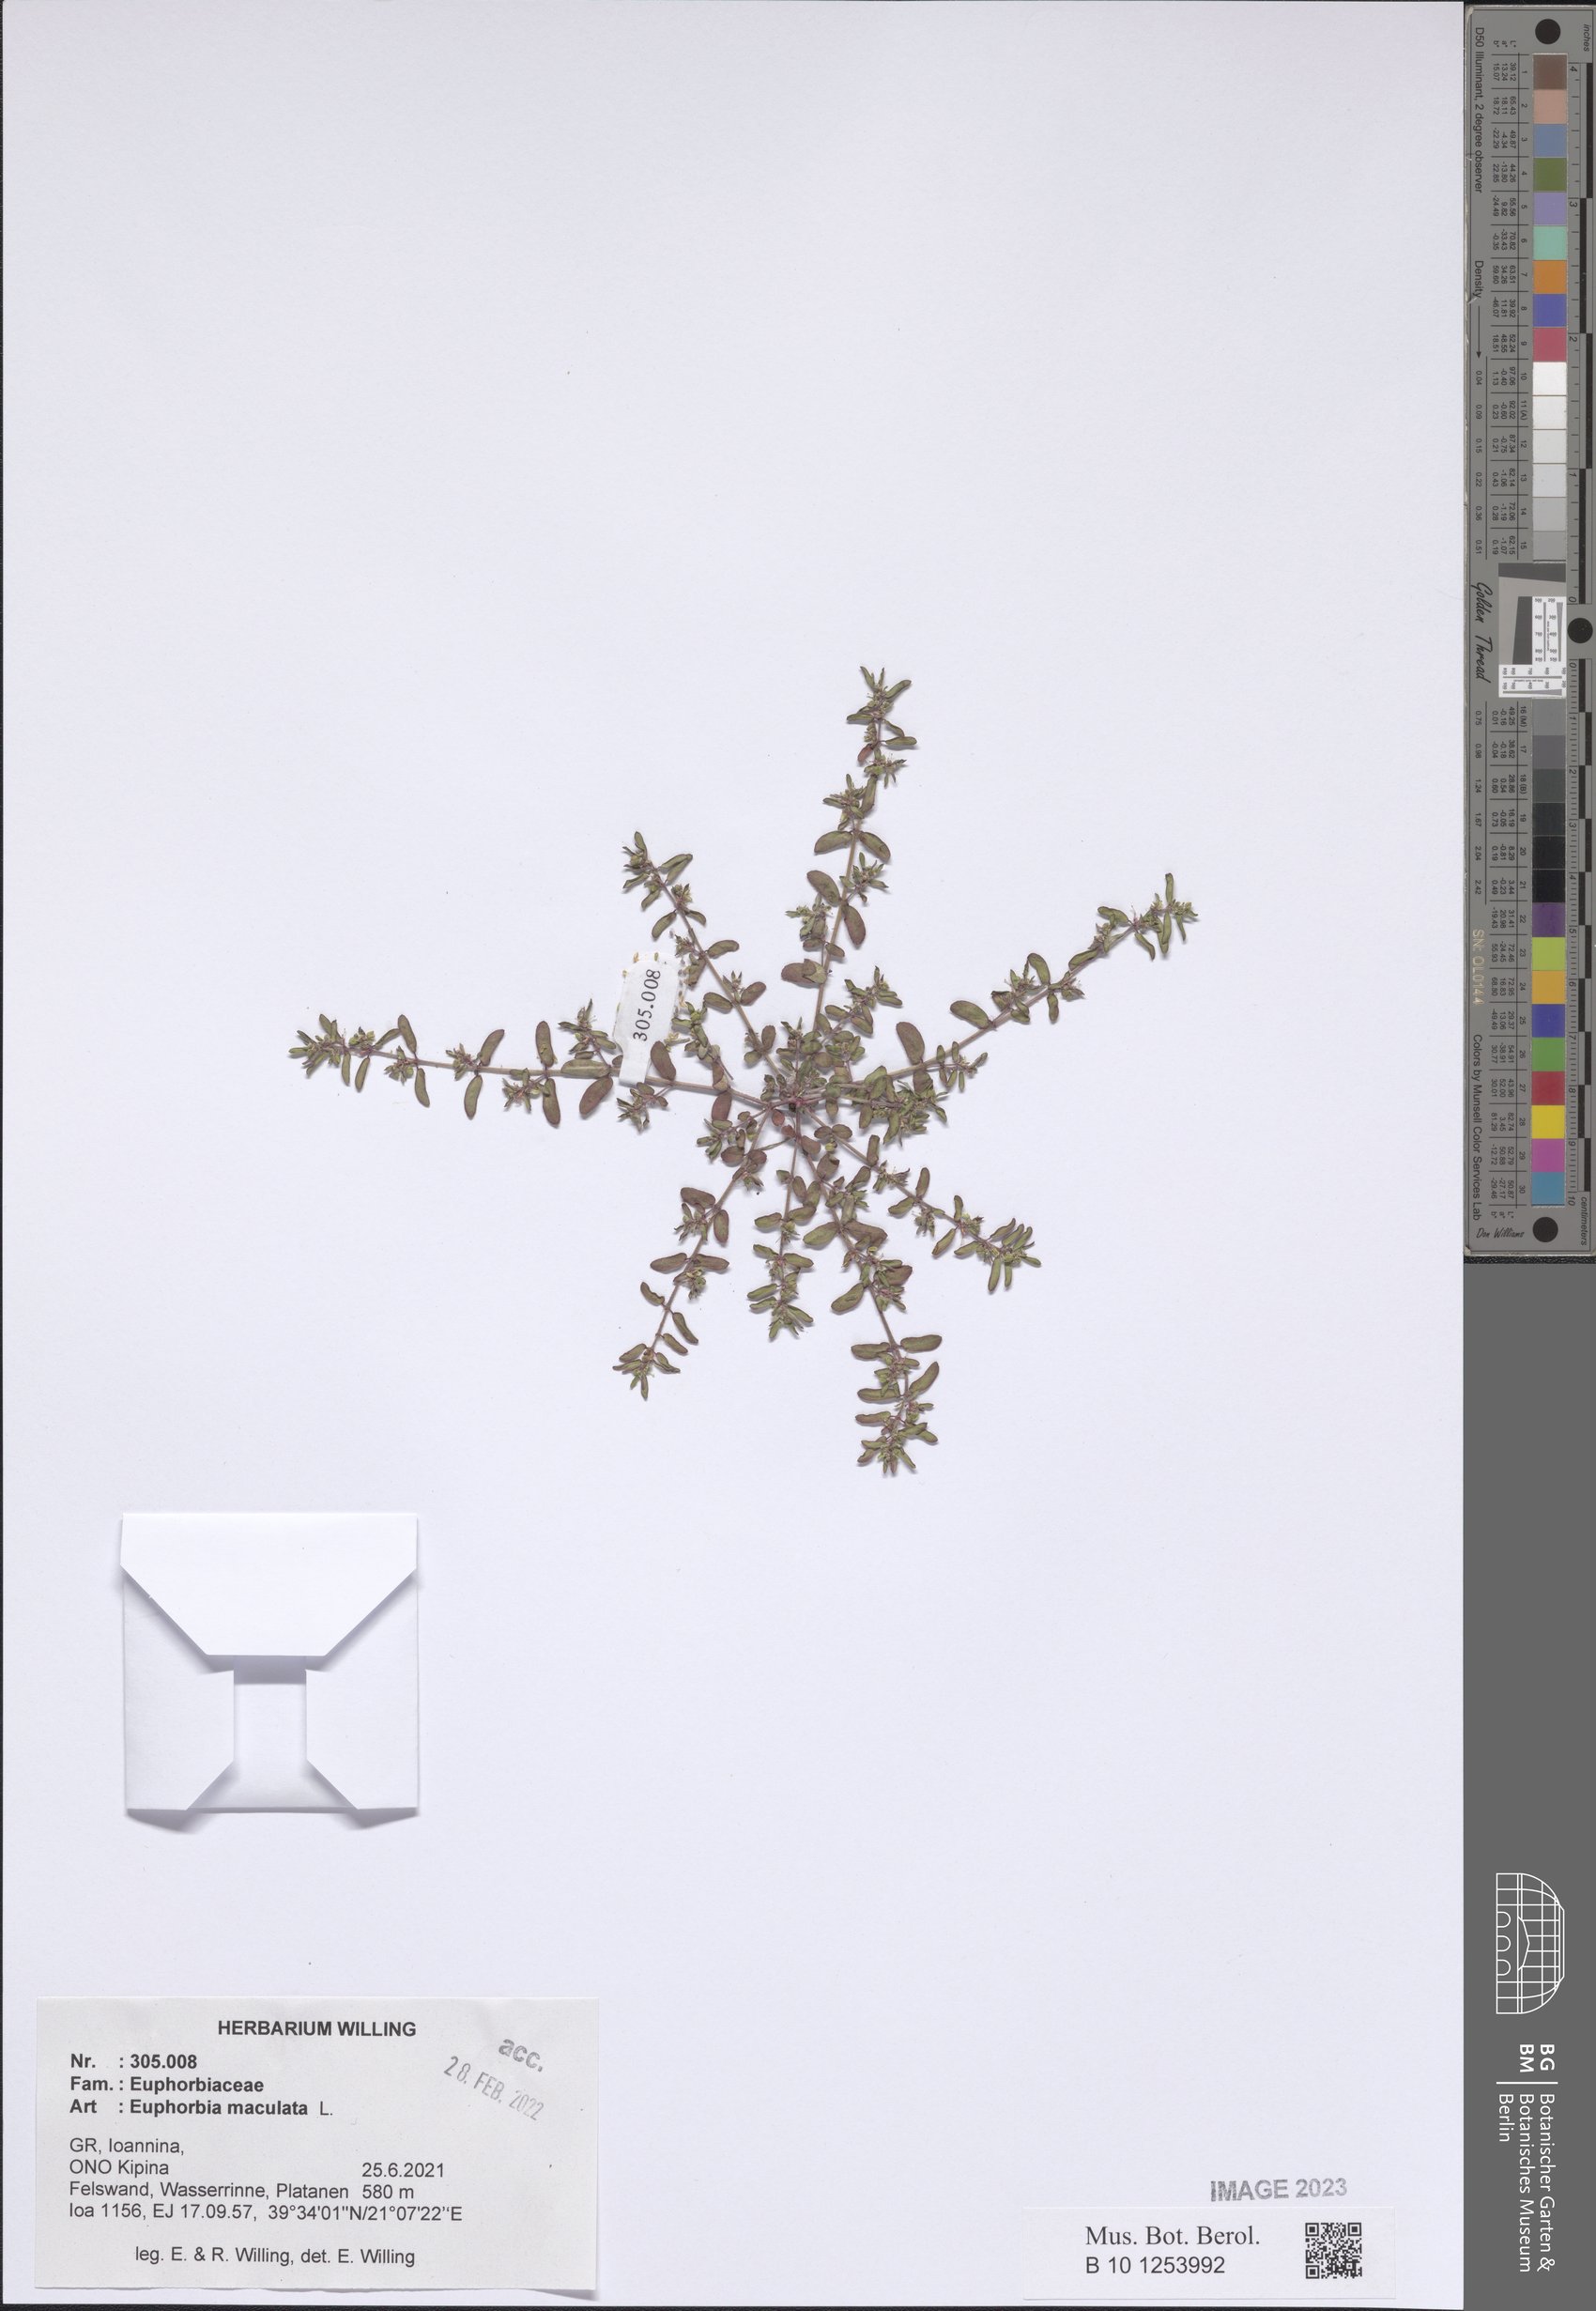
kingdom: Plantae
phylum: Tracheophyta
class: Magnoliopsida
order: Malpighiales
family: Euphorbiaceae
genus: Euphorbia
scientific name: Euphorbia maculata
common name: Spotted spurge
